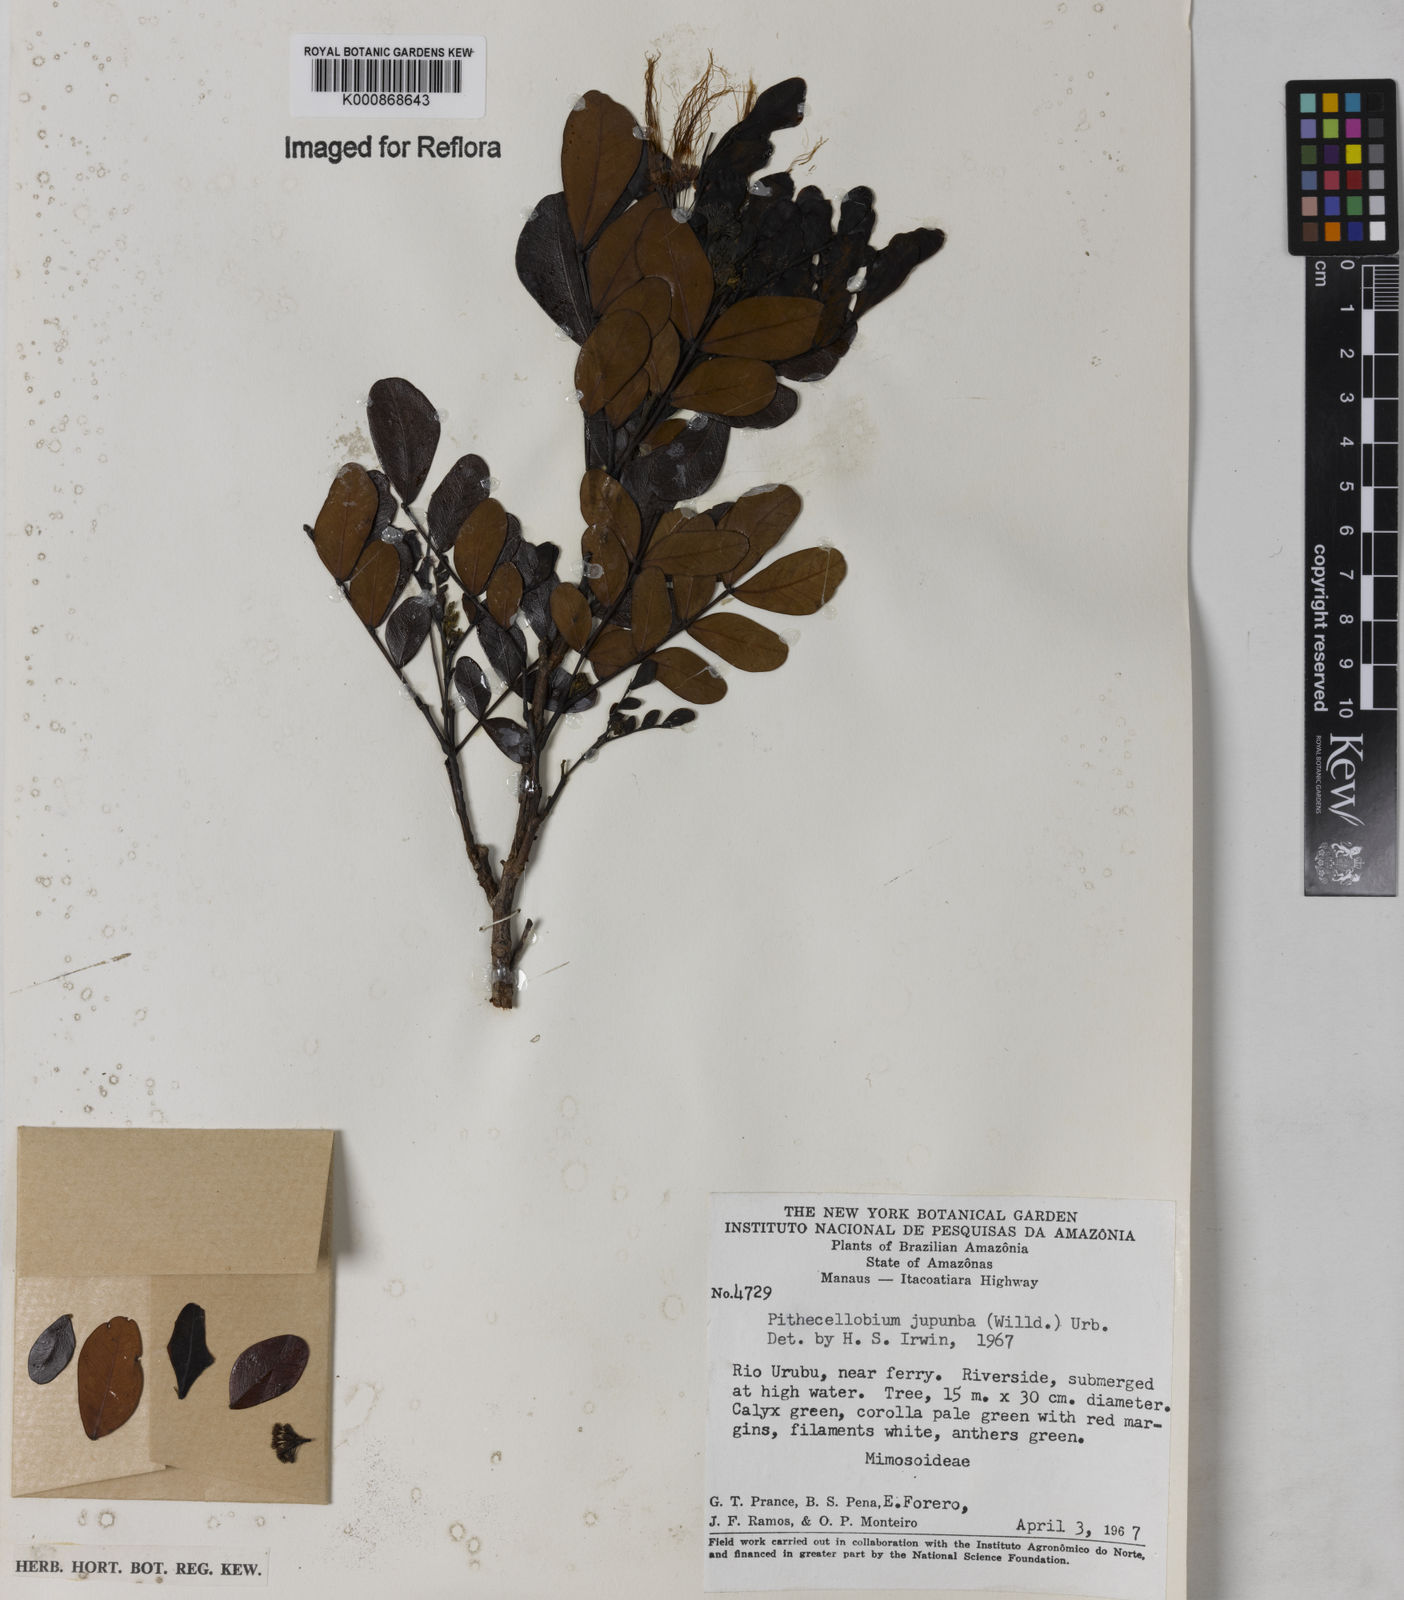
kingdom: Plantae
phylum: Tracheophyta
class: Magnoliopsida
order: Fabales
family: Fabaceae
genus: Jupunba
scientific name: Jupunba trapezifolia
